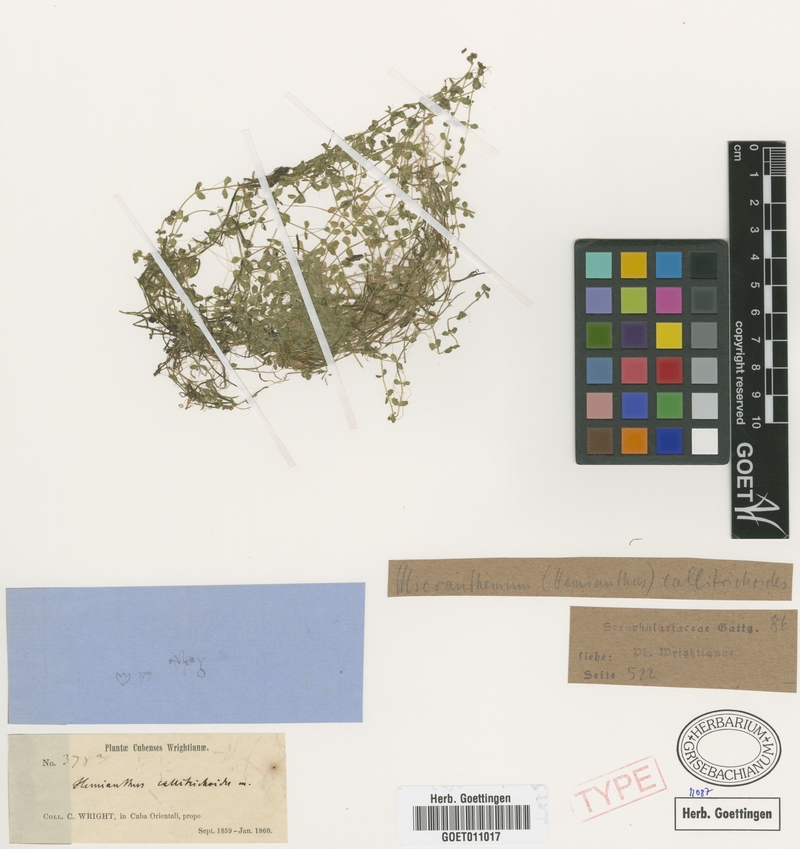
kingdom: Plantae
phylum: Tracheophyta
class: Magnoliopsida
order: Lamiales
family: Linderniaceae
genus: Micranthemum
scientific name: Micranthemum callitrichoides
